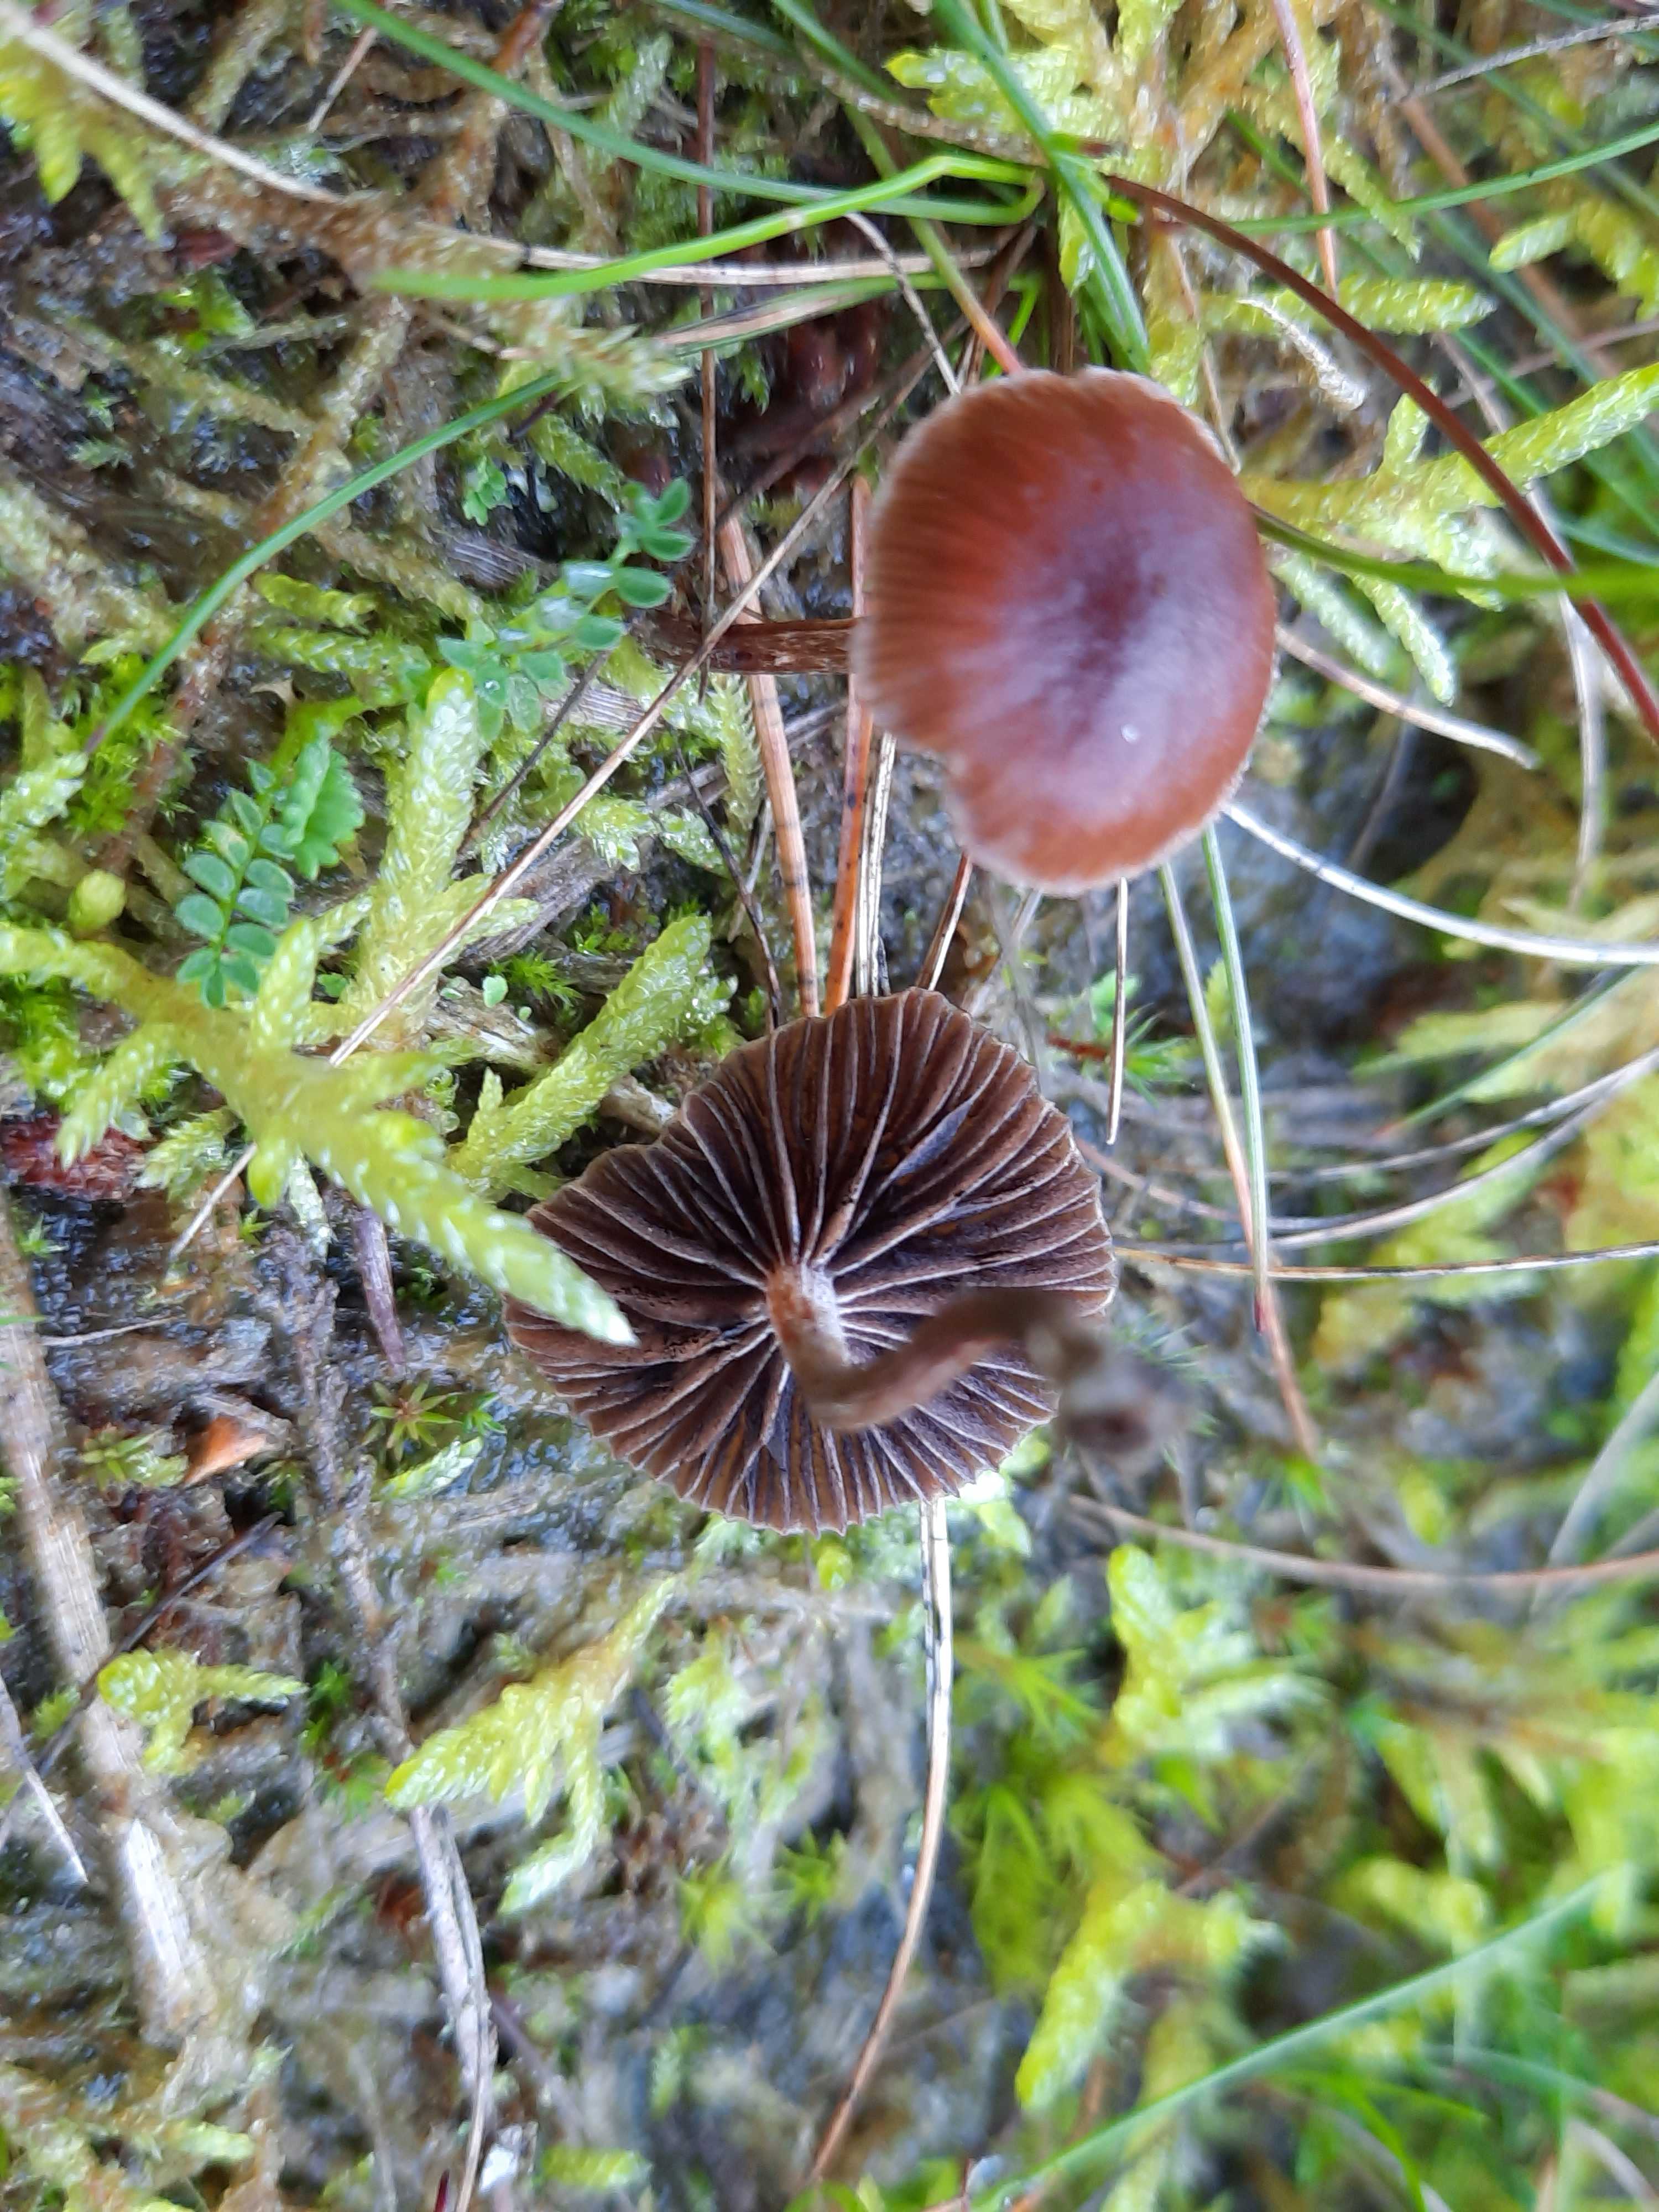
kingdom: Fungi
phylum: Basidiomycota
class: Agaricomycetes
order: Agaricales
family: Strophariaceae
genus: Deconica
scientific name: Deconica montana
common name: rødbrun stråhat
